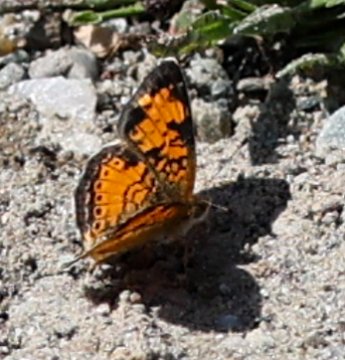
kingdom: Animalia
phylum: Arthropoda
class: Insecta
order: Lepidoptera
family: Nymphalidae
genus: Phyciodes
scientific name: Phyciodes
